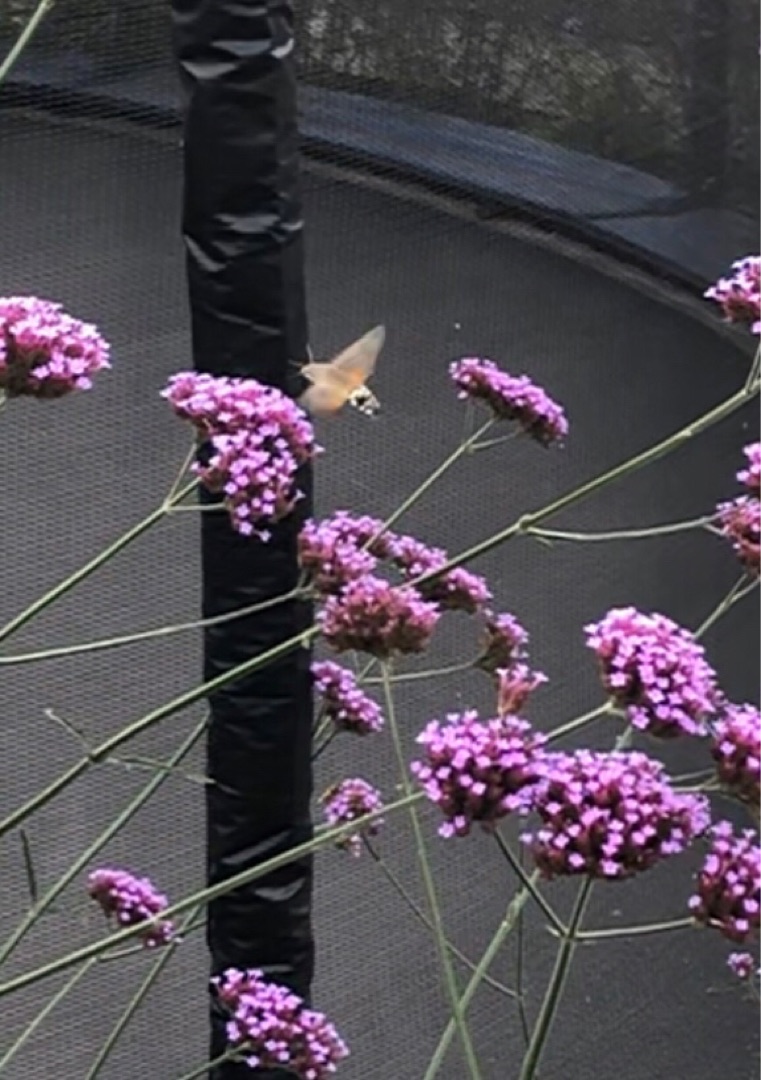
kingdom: Animalia
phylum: Arthropoda
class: Insecta
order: Lepidoptera
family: Sphingidae
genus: Macroglossum
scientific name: Macroglossum stellatarum
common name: Duehale
